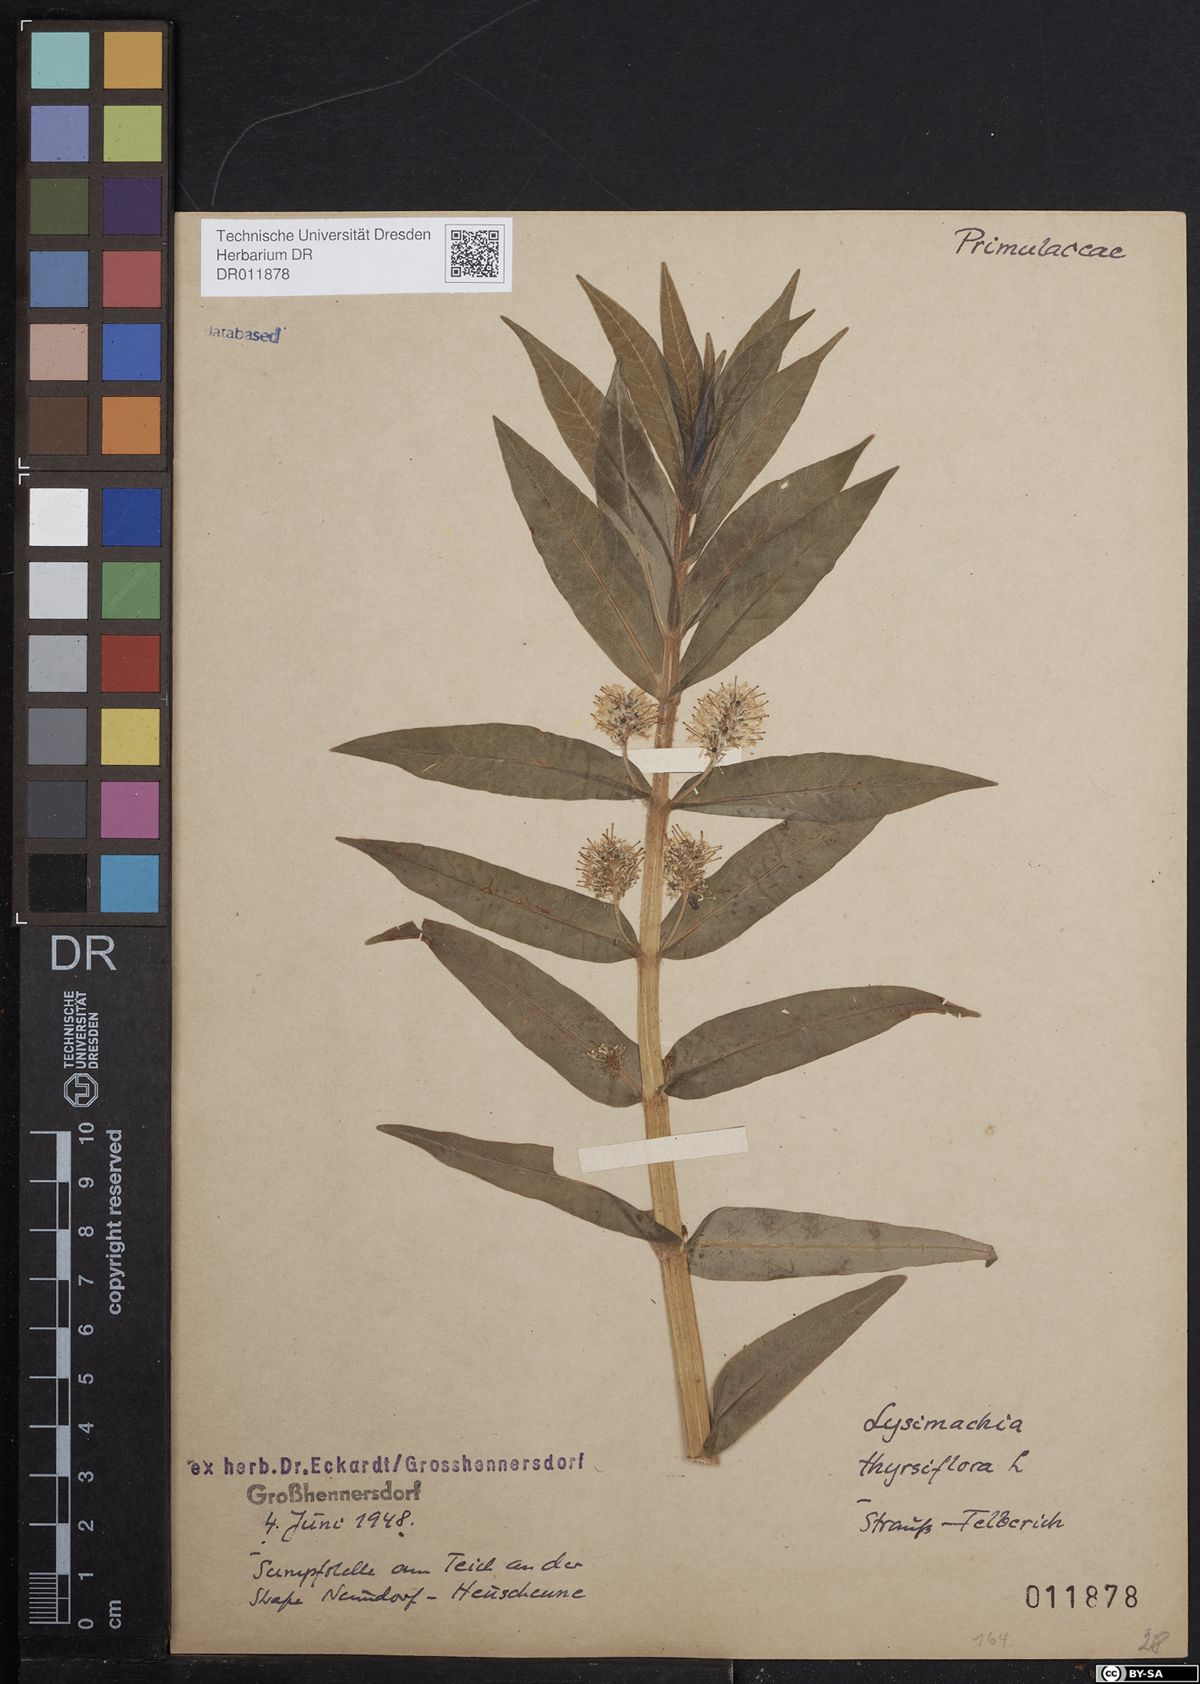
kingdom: Plantae
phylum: Tracheophyta
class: Magnoliopsida
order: Ericales
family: Primulaceae
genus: Lysimachia
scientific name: Lysimachia thyrsiflora
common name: Tufted loosestrife
